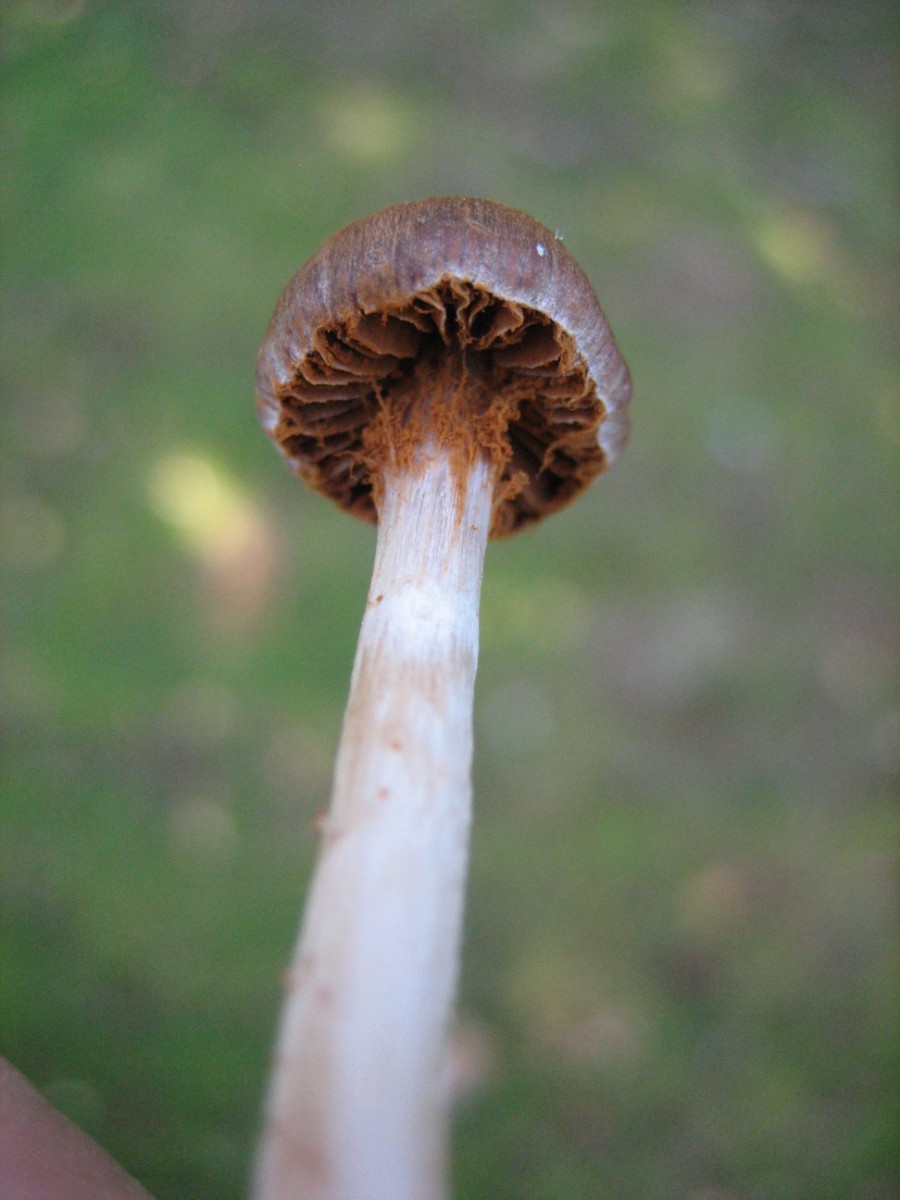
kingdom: Fungi
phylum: Basidiomycota
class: Agaricomycetes
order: Agaricales
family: Cortinariaceae
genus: Cortinarius
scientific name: Cortinarius
